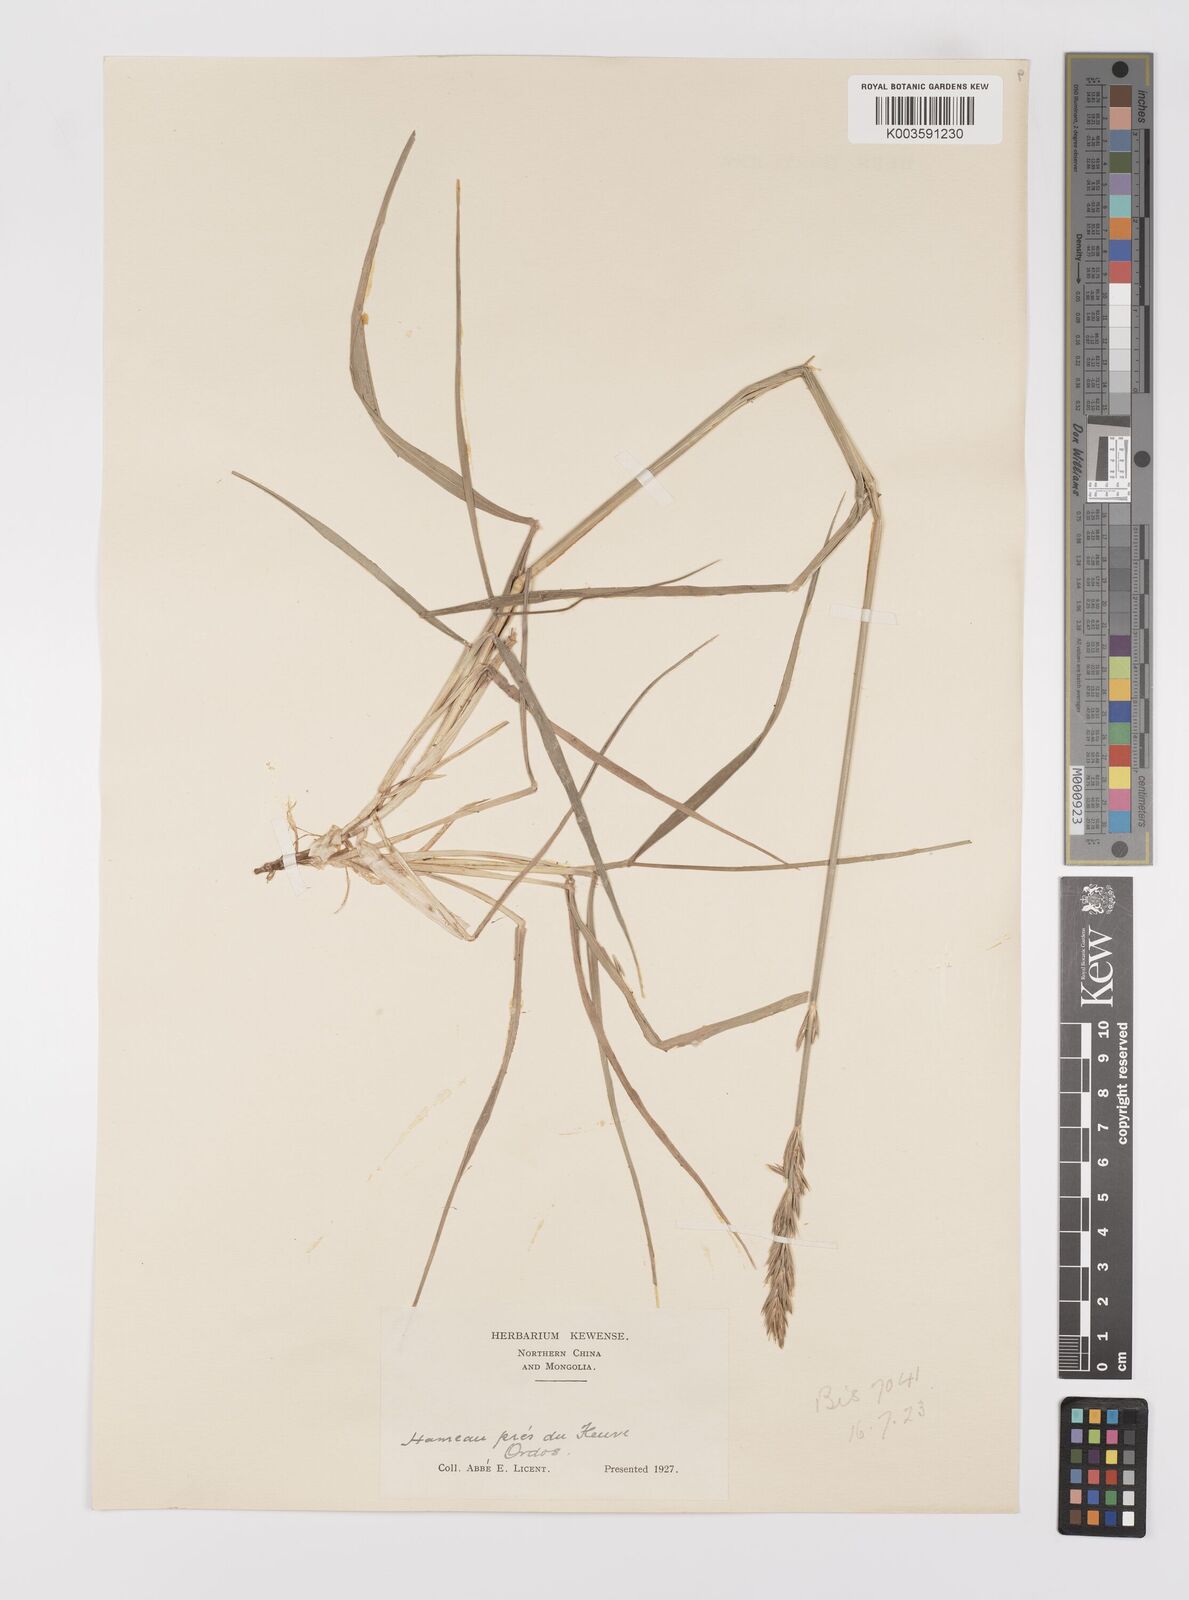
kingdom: Plantae
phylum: Tracheophyta
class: Liliopsida
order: Poales
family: Poaceae
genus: Leymus
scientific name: Leymus chinensis
